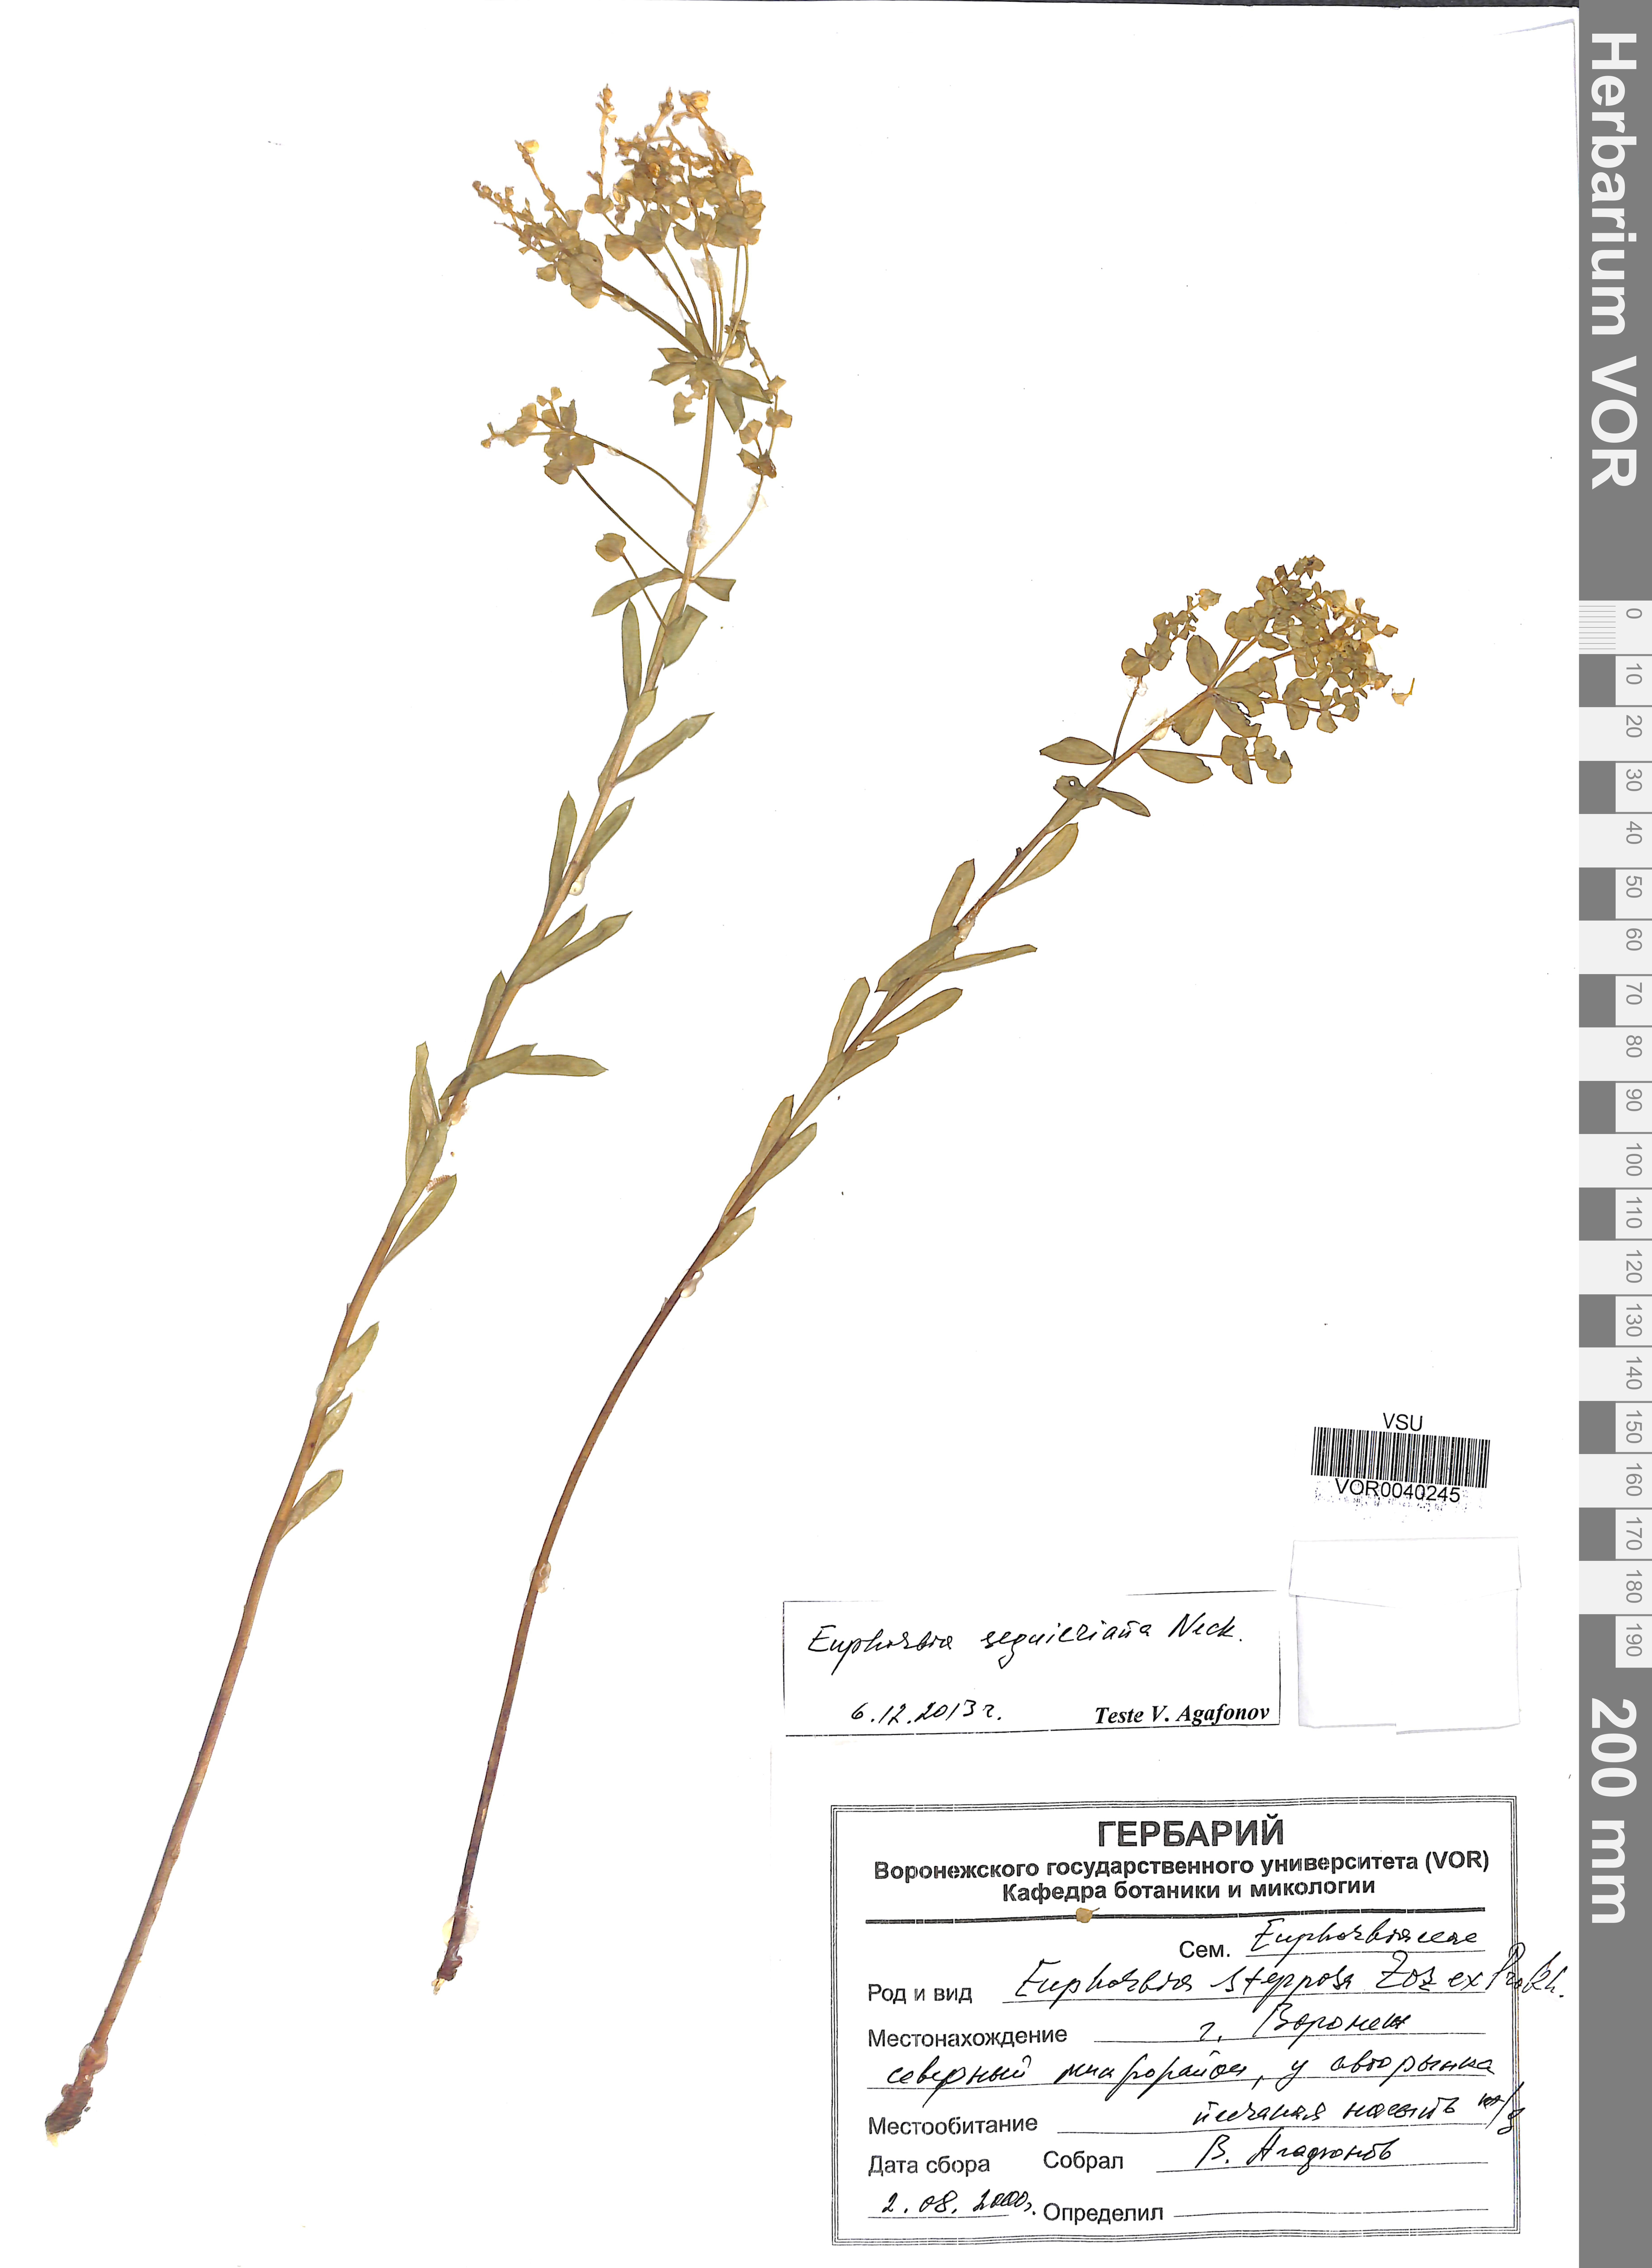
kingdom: Plantae
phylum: Tracheophyta
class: Magnoliopsida
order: Malpighiales
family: Euphorbiaceae
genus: Euphorbia
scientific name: Euphorbia seguieriana
